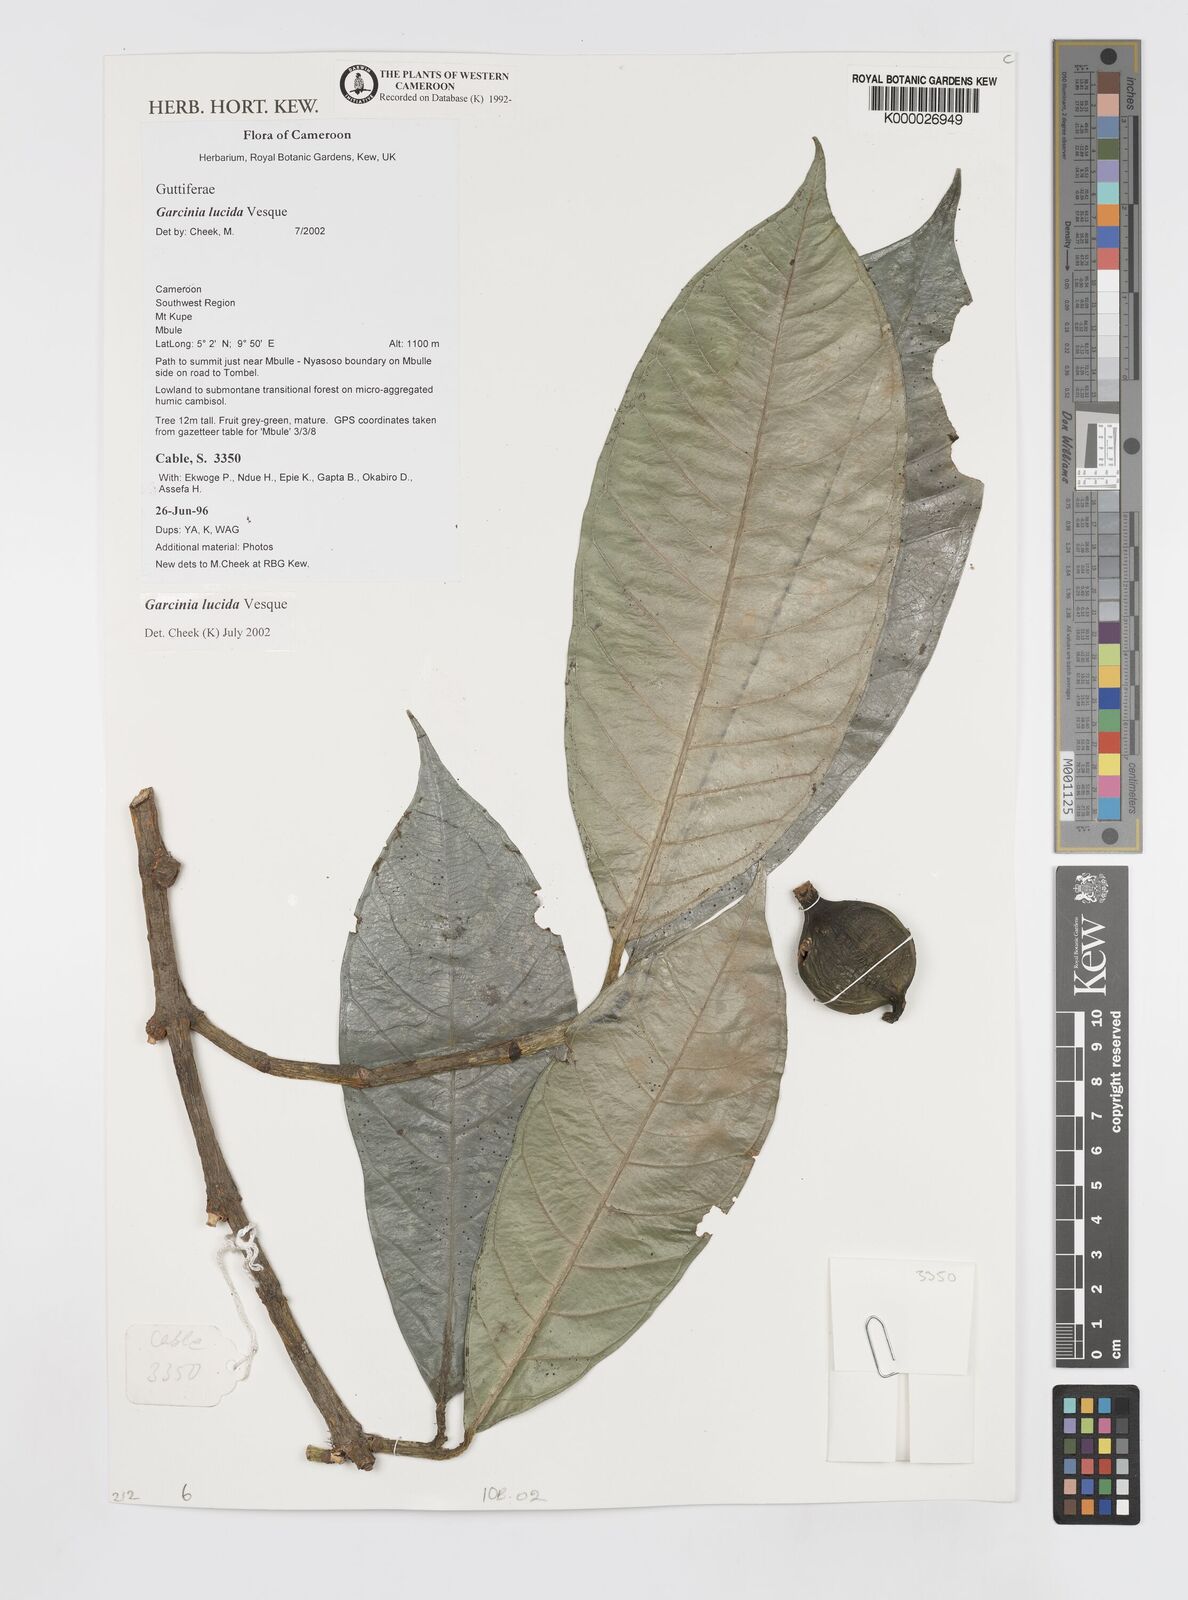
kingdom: Plantae
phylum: Tracheophyta
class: Magnoliopsida
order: Malpighiales
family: Clusiaceae
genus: Garcinia
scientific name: Garcinia lucida
